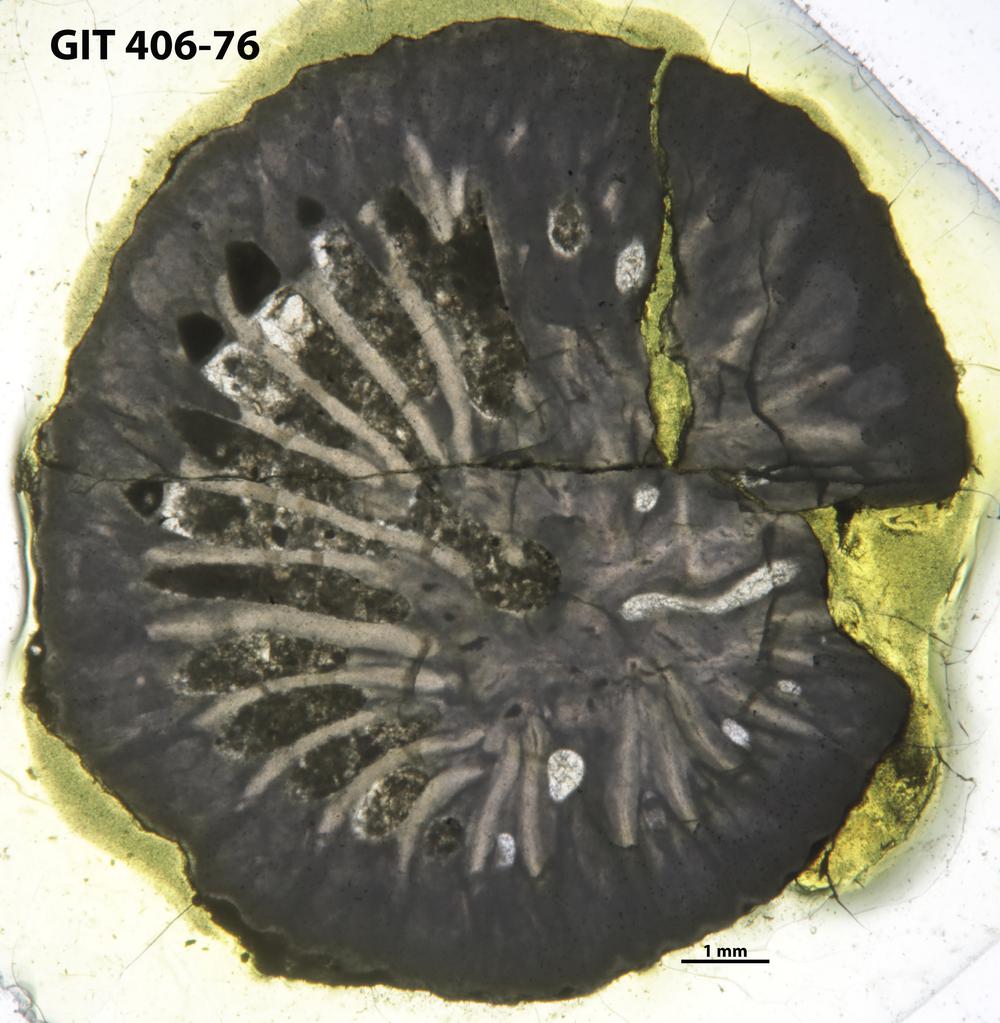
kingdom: Animalia
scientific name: Animalia
